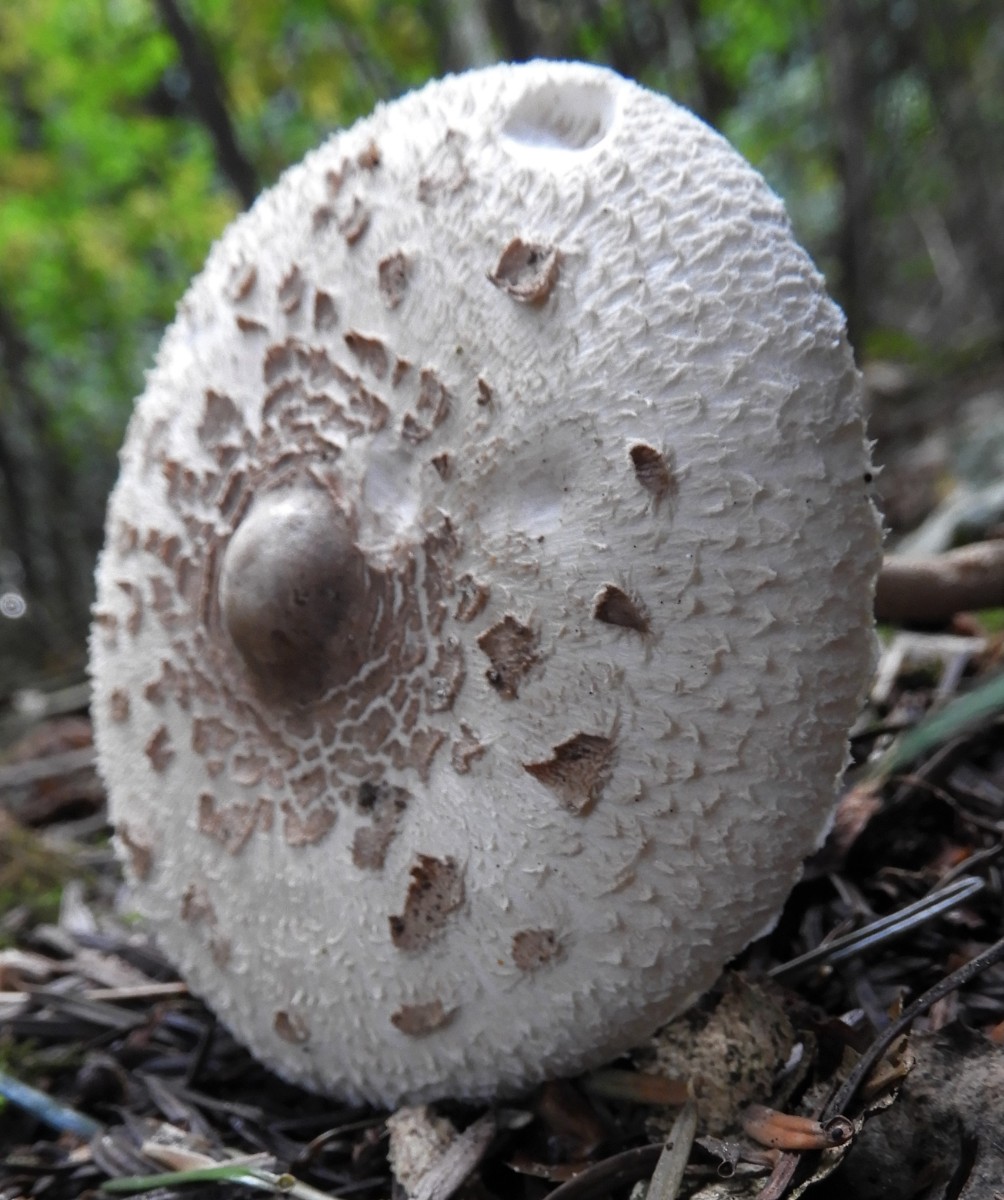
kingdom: Fungi
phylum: Basidiomycota
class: Agaricomycetes
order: Agaricales
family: Agaricaceae
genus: Macrolepiota
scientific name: Macrolepiota mastoidea
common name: puklet kæmpeparasolhat
